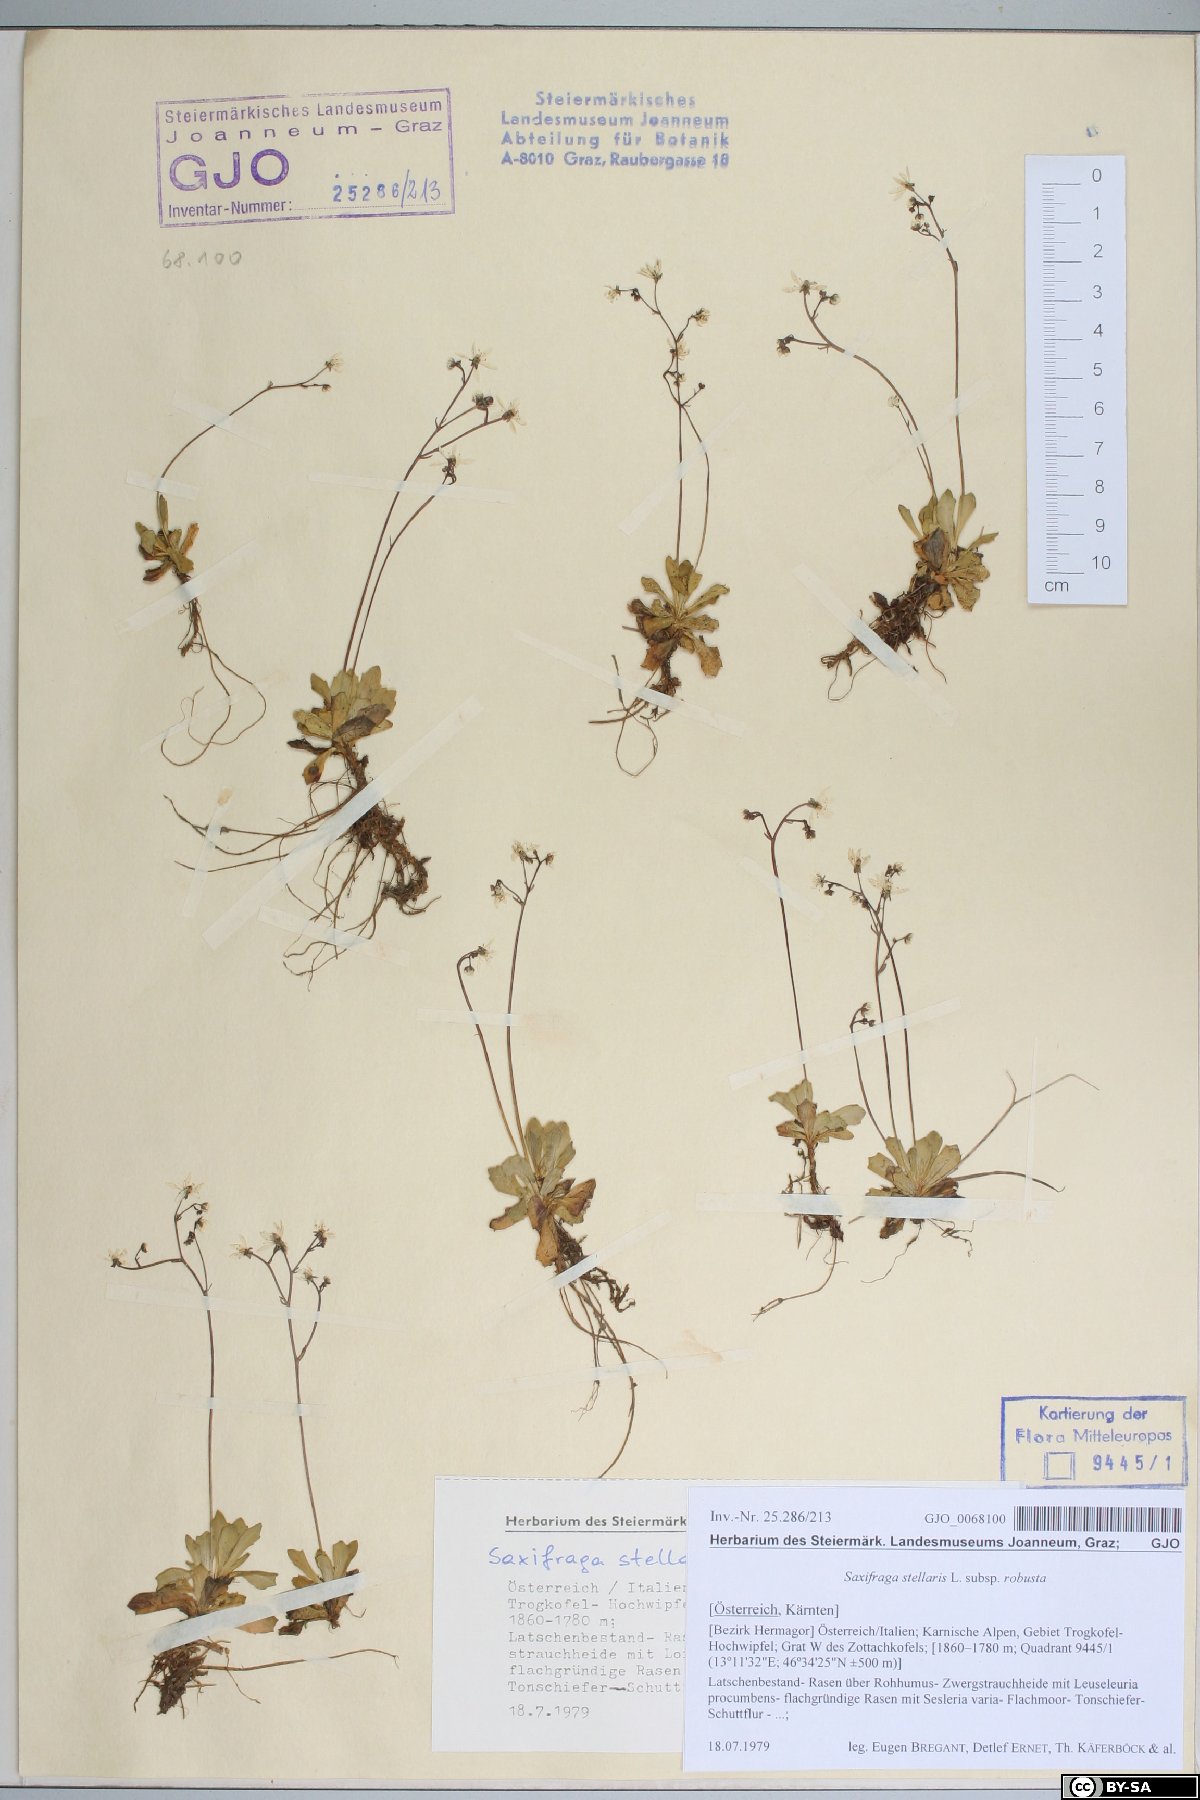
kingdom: Plantae
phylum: Tracheophyta
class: Magnoliopsida
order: Saxifragales
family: Saxifragaceae
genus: Micranthes
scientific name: Micranthes stellaris
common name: Starry saxifrage
